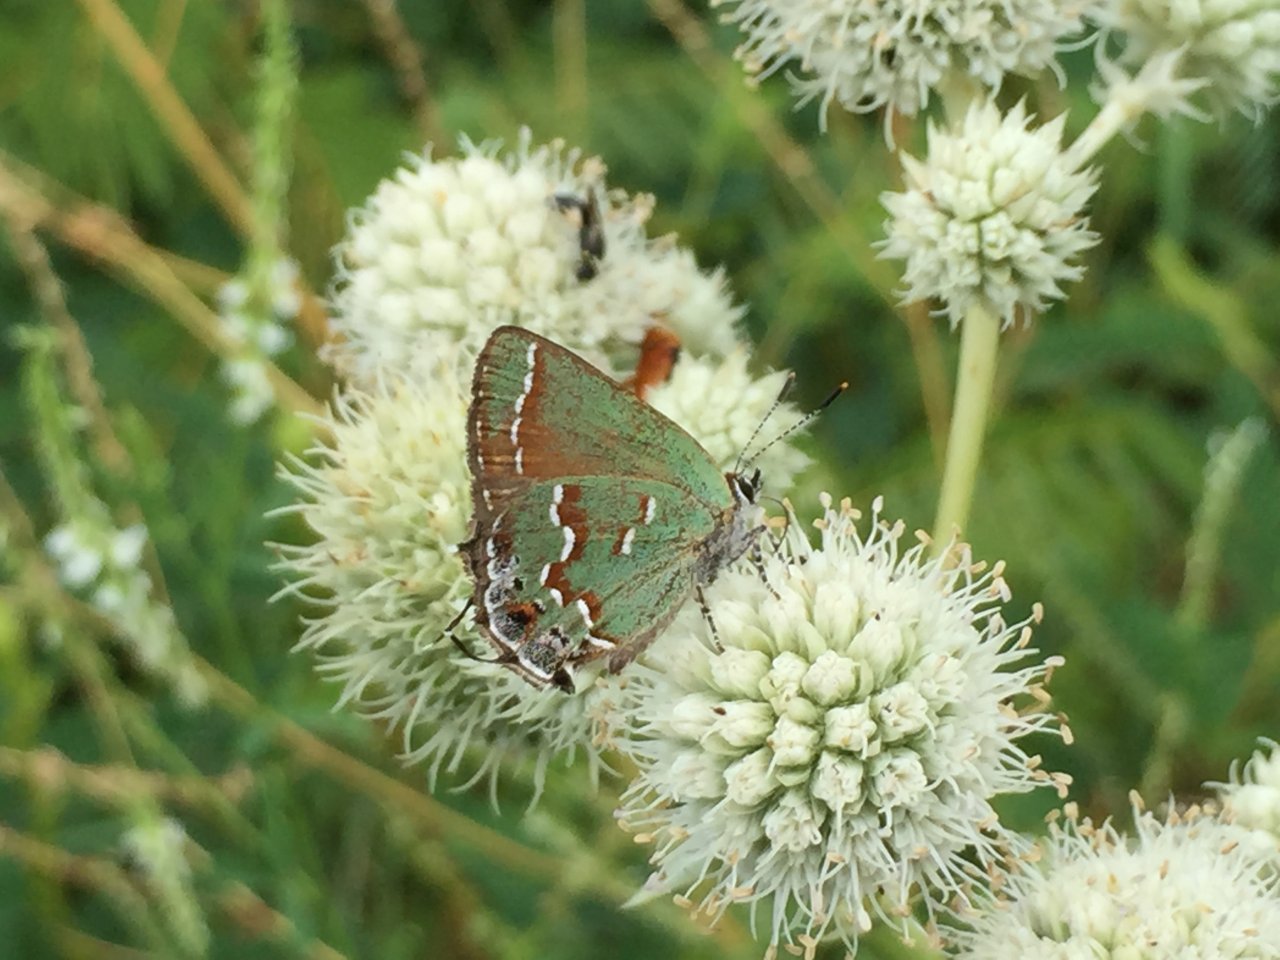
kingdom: Animalia
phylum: Arthropoda
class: Insecta
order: Lepidoptera
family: Lycaenidae
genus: Mitoura
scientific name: Mitoura gryneus
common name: Juniper Hairstreak
